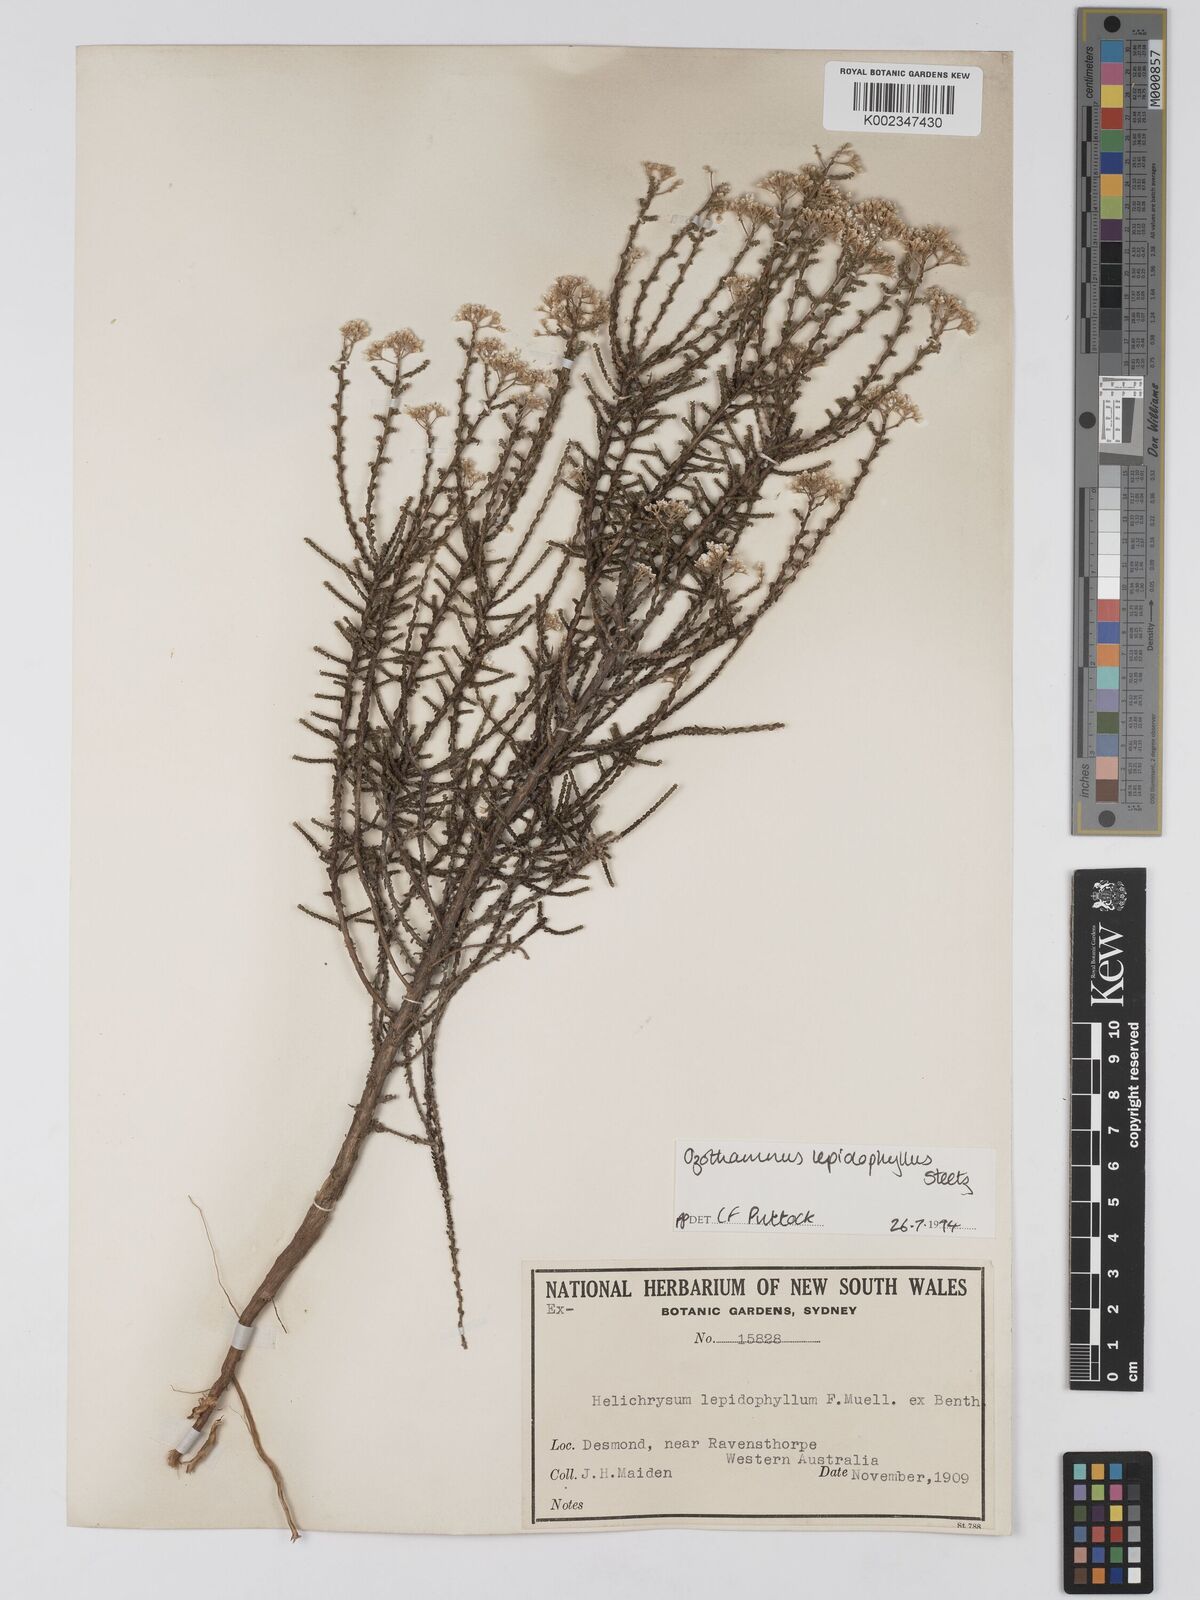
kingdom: Plantae
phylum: Tracheophyta
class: Magnoliopsida
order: Asterales
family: Asteraceae
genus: Ozothamnus
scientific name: Ozothamnus lepidophyllus
